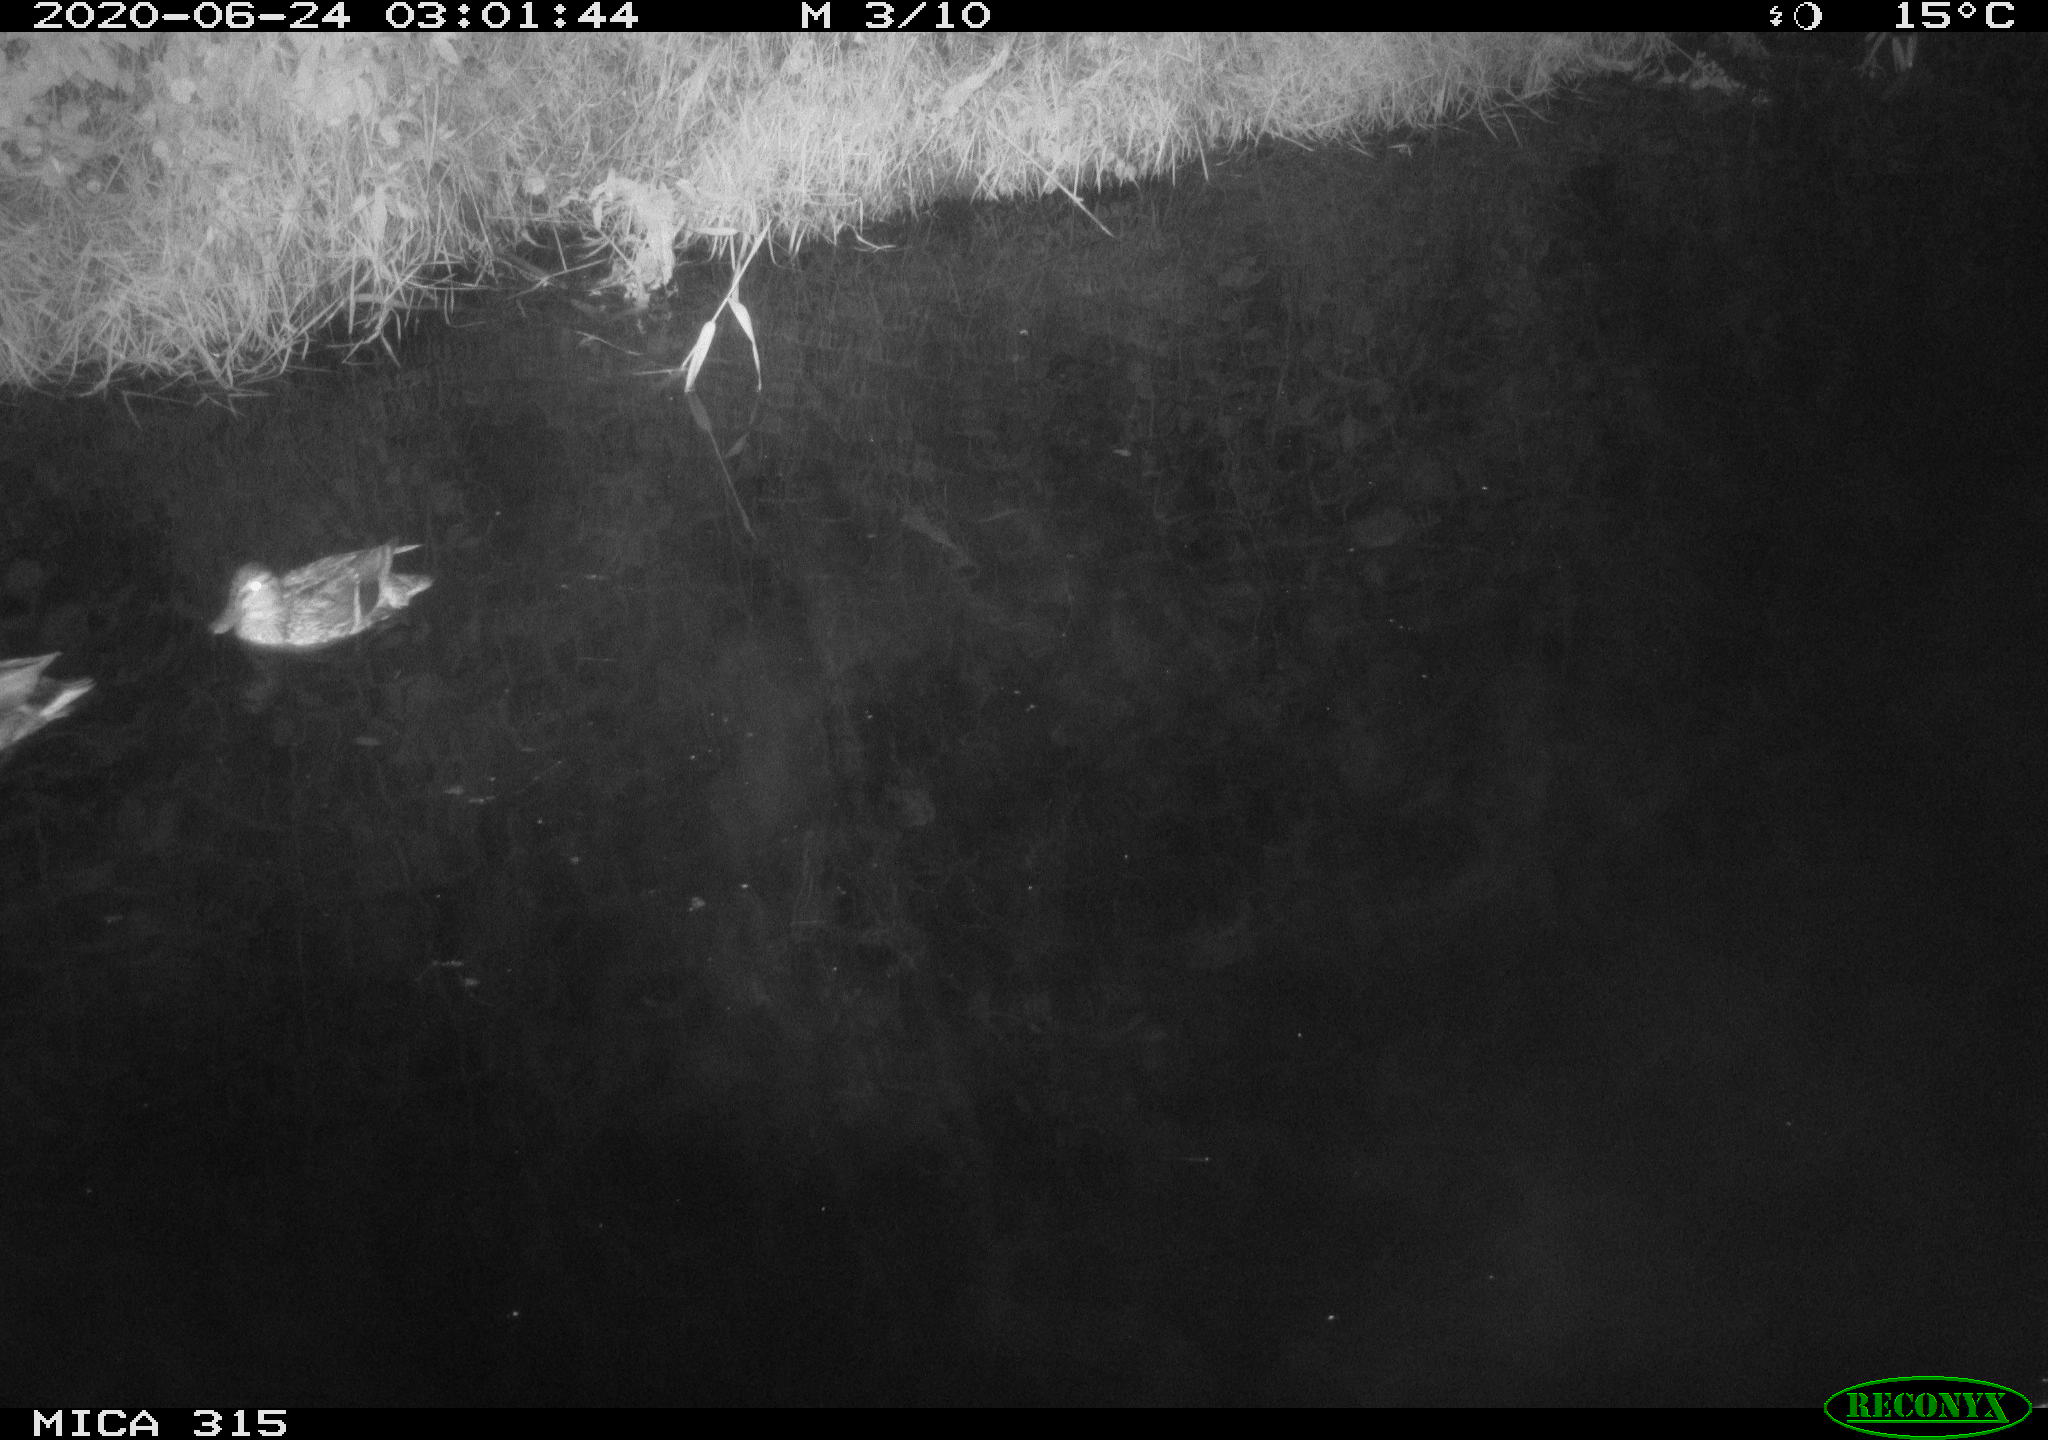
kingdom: Animalia
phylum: Chordata
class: Aves
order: Anseriformes
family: Anatidae
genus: Anas
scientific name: Anas platyrhynchos
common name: Mallard
